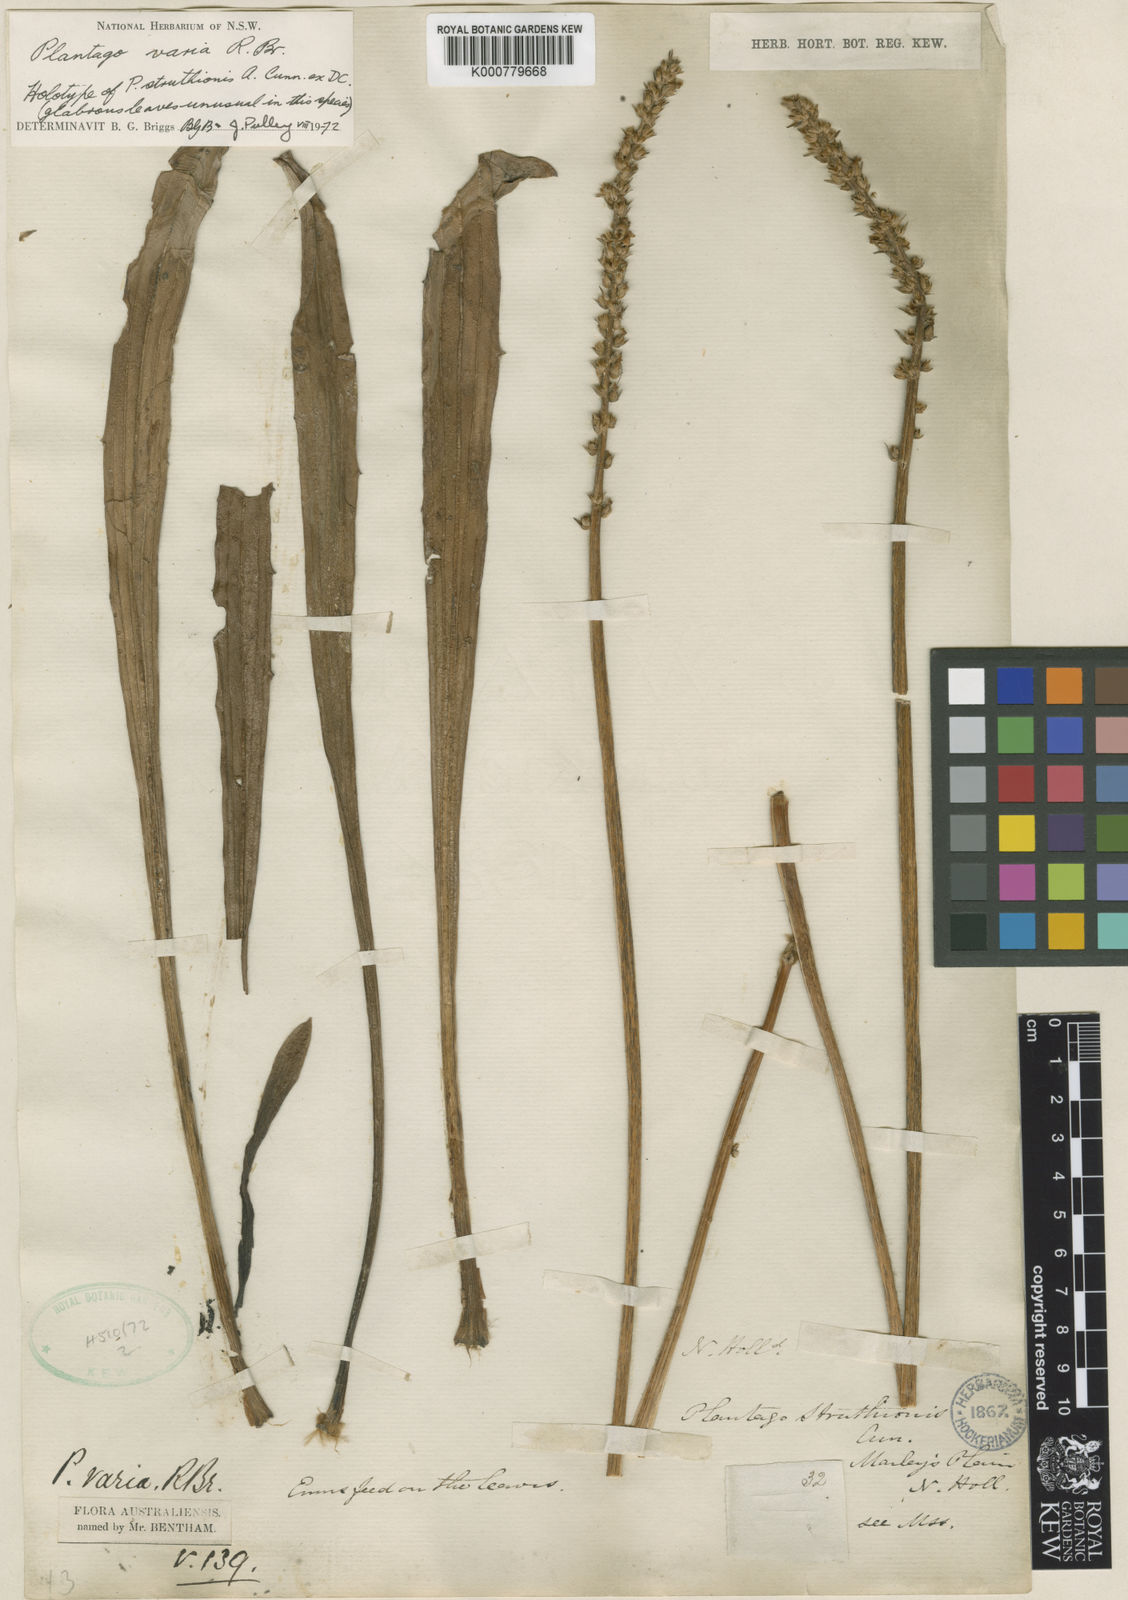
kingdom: Plantae
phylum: Tracheophyta
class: Magnoliopsida
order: Lamiales
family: Plantaginaceae
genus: Plantago
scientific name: Plantago varia
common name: Variable plantain
